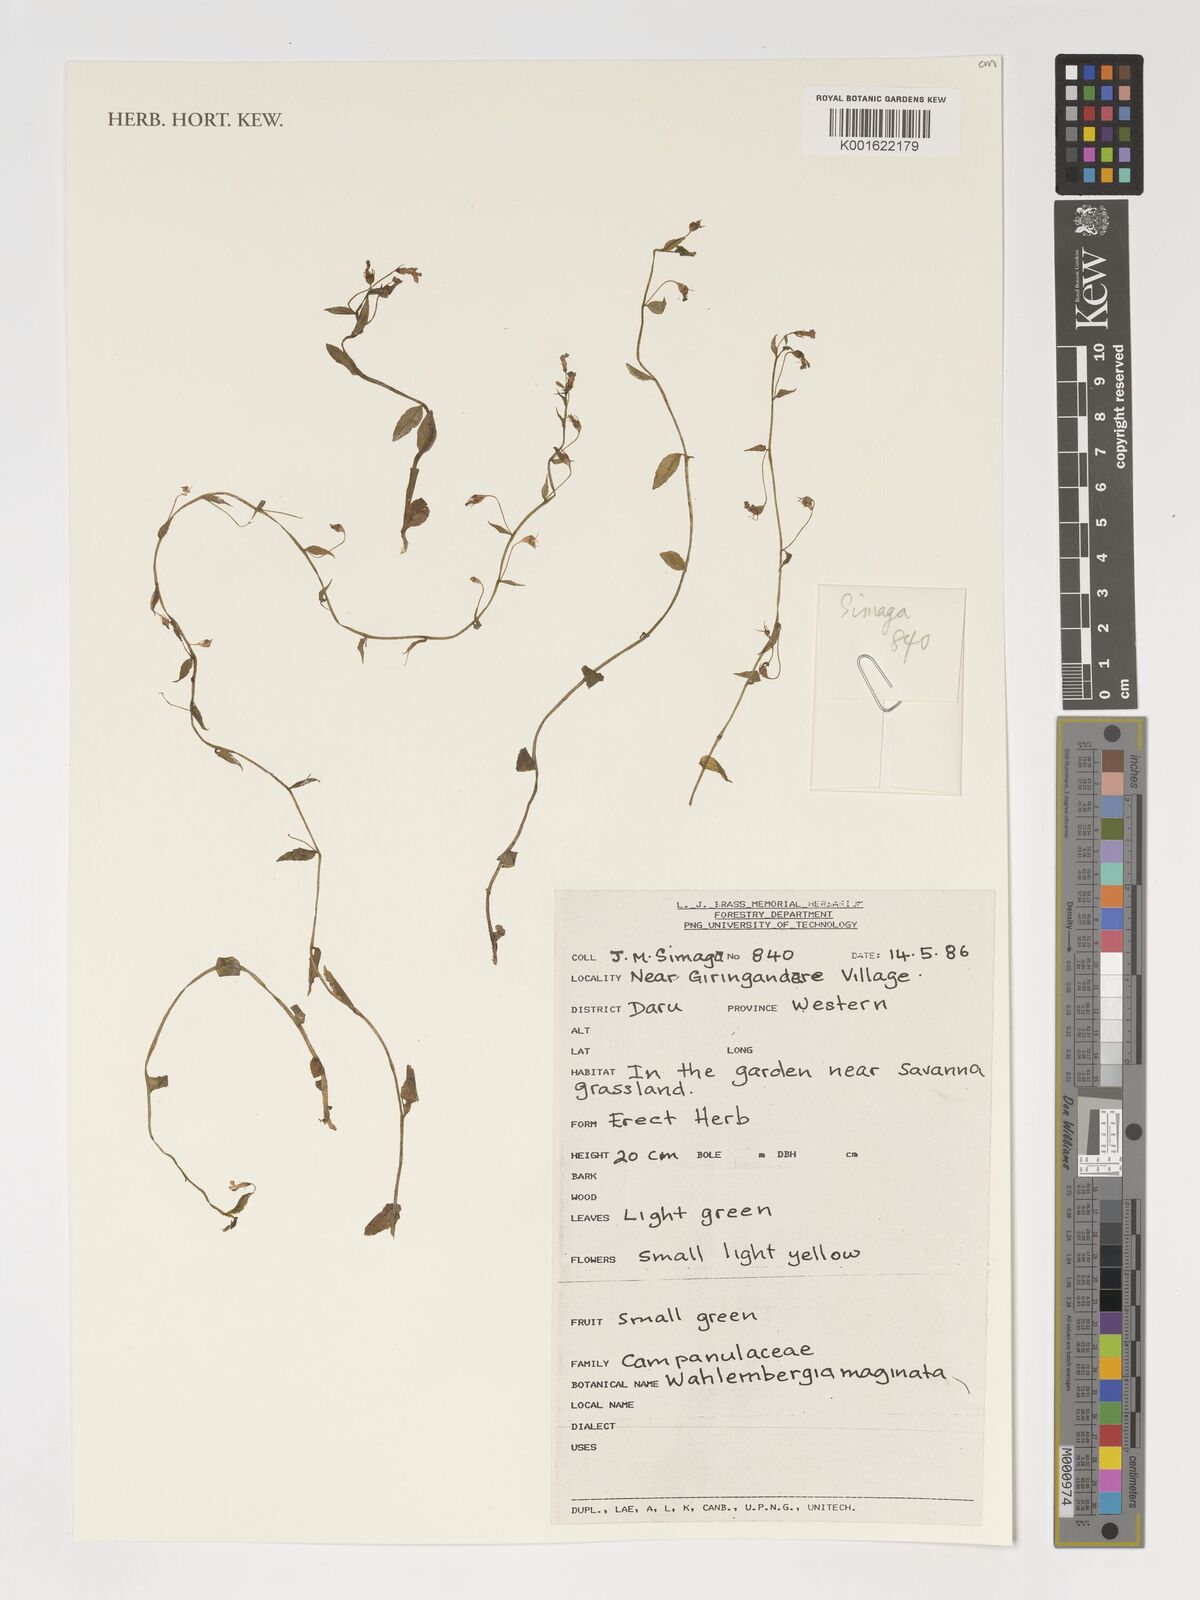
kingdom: Plantae
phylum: Tracheophyta
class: Magnoliopsida
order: Asterales
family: Campanulaceae
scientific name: Campanulaceae
